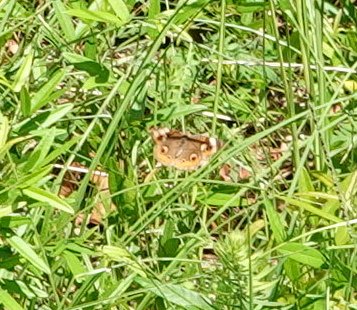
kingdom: Animalia
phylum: Arthropoda
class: Insecta
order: Lepidoptera
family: Nymphalidae
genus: Junonia
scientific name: Junonia coenia
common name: Common Buckeye
